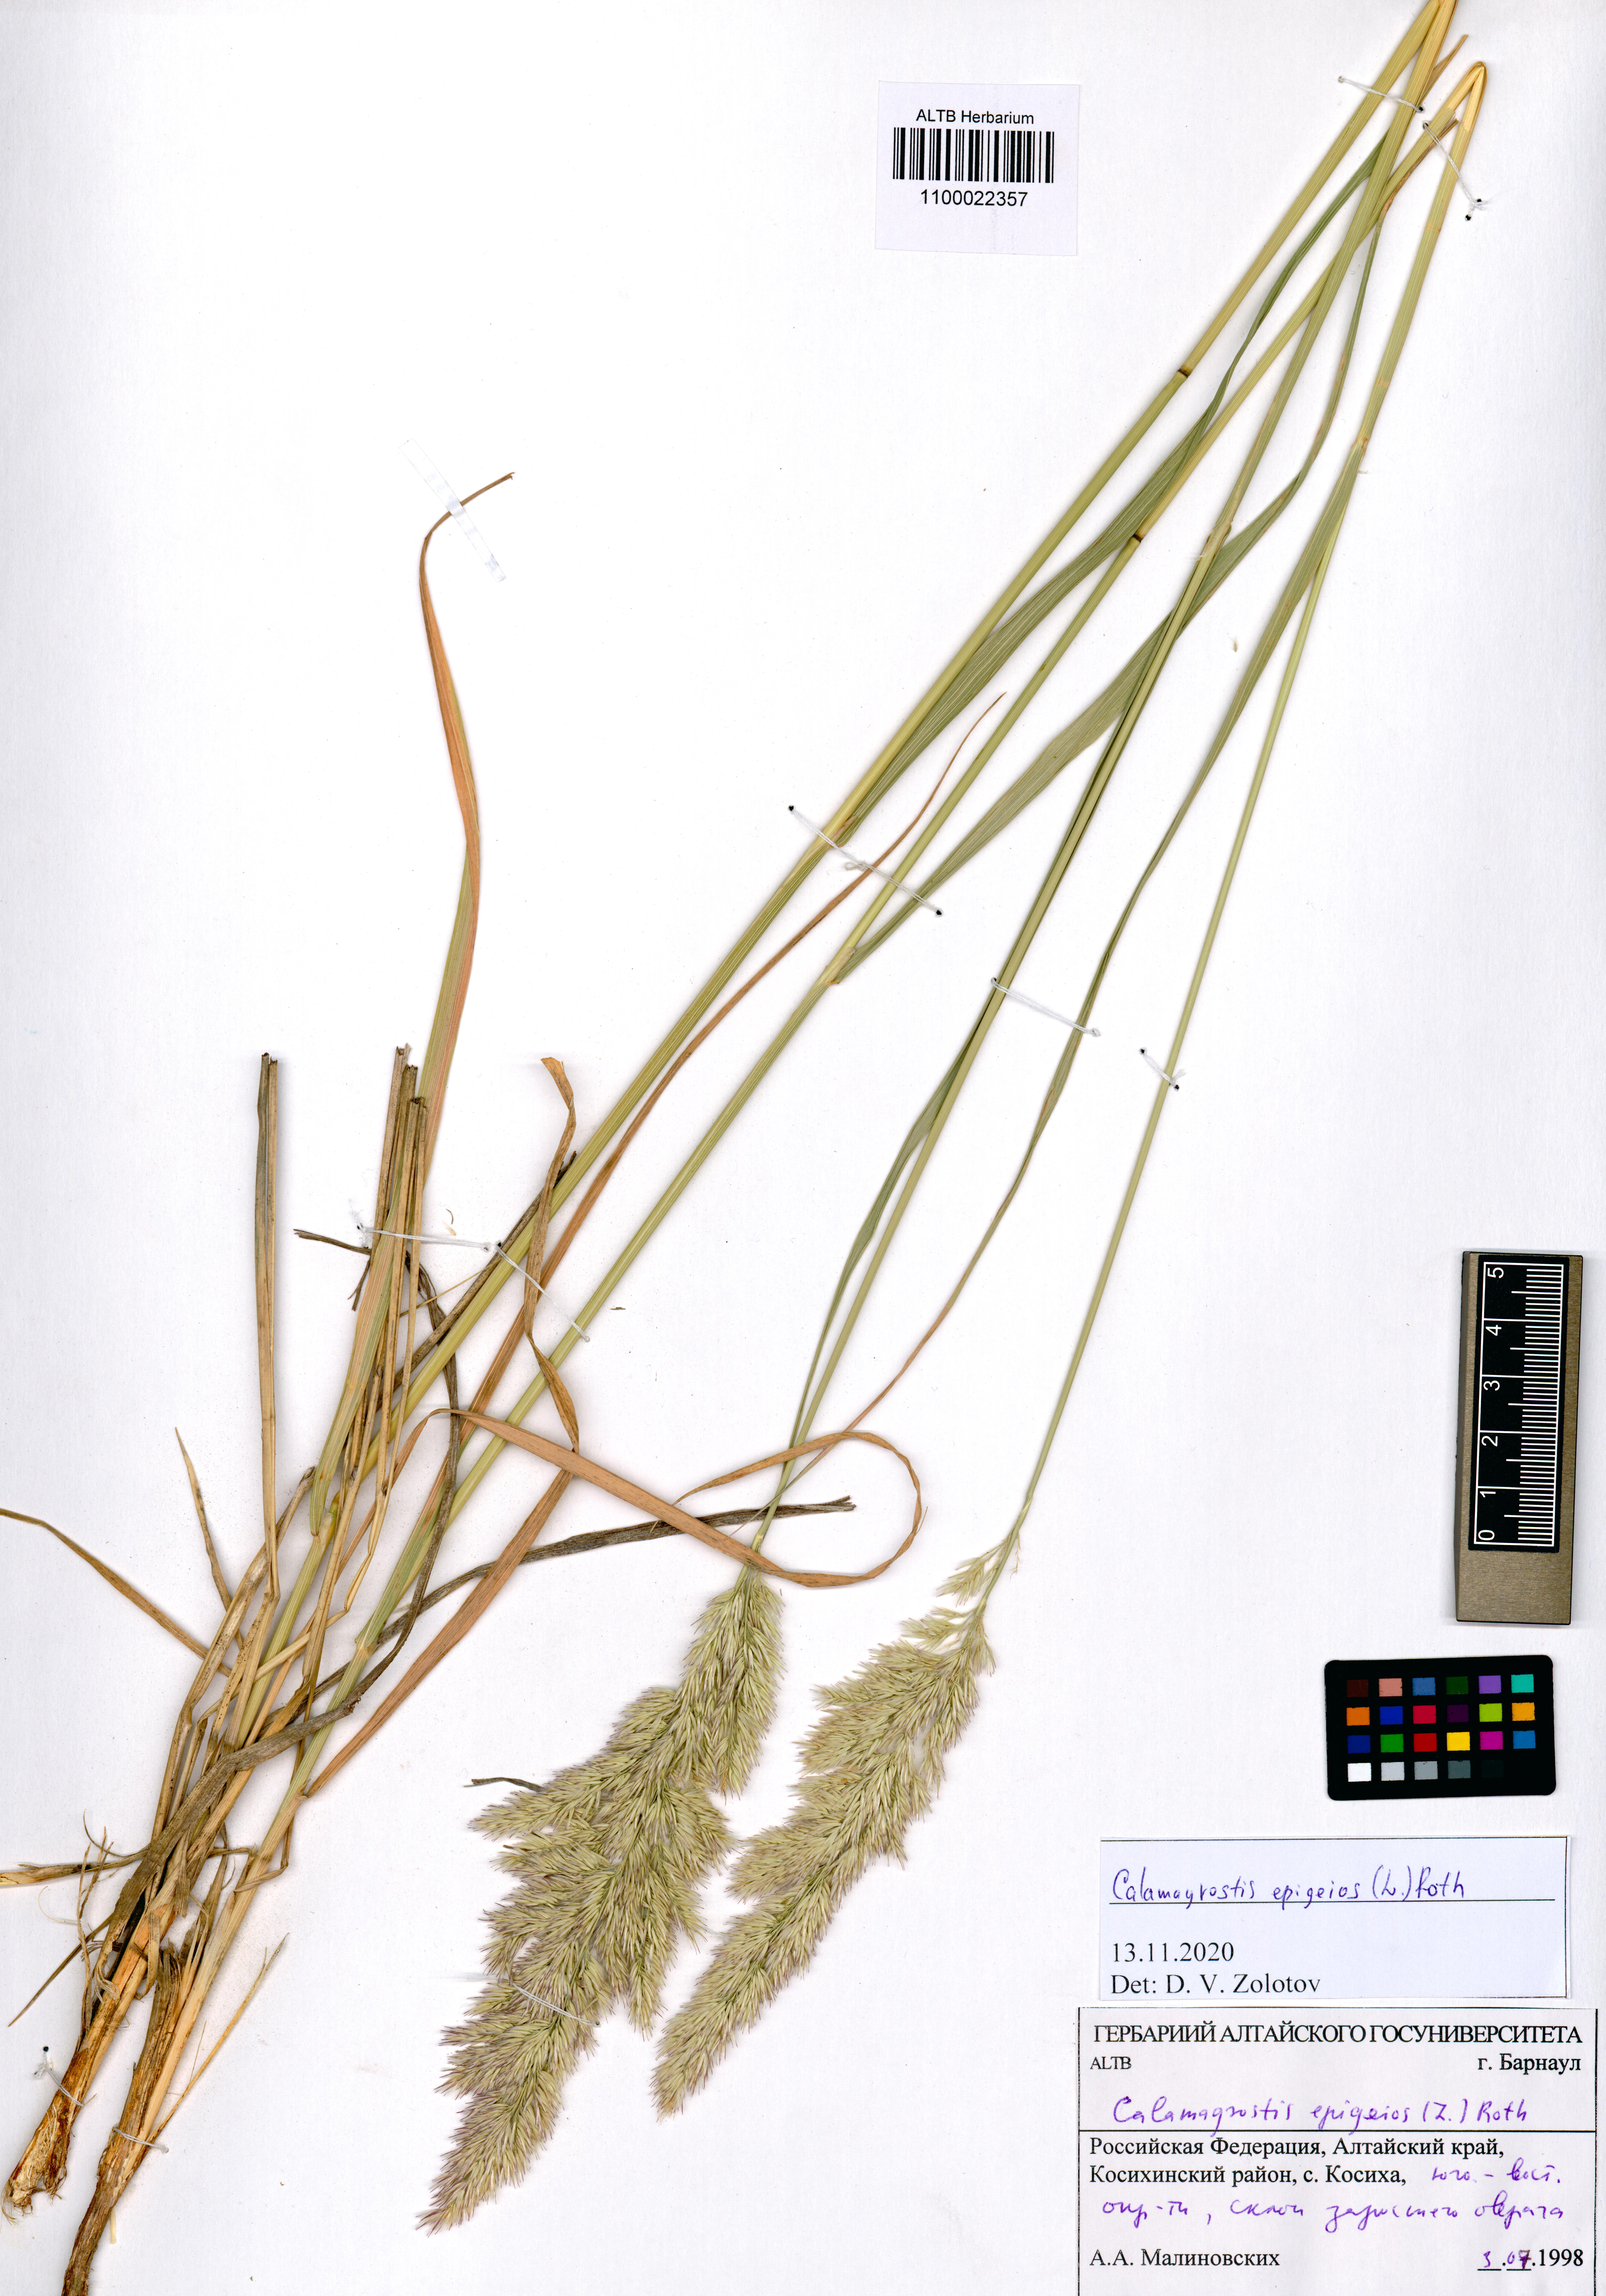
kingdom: Plantae
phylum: Tracheophyta
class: Liliopsida
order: Poales
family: Poaceae
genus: Calamagrostis
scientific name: Calamagrostis epigejos
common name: Wood small-reed
